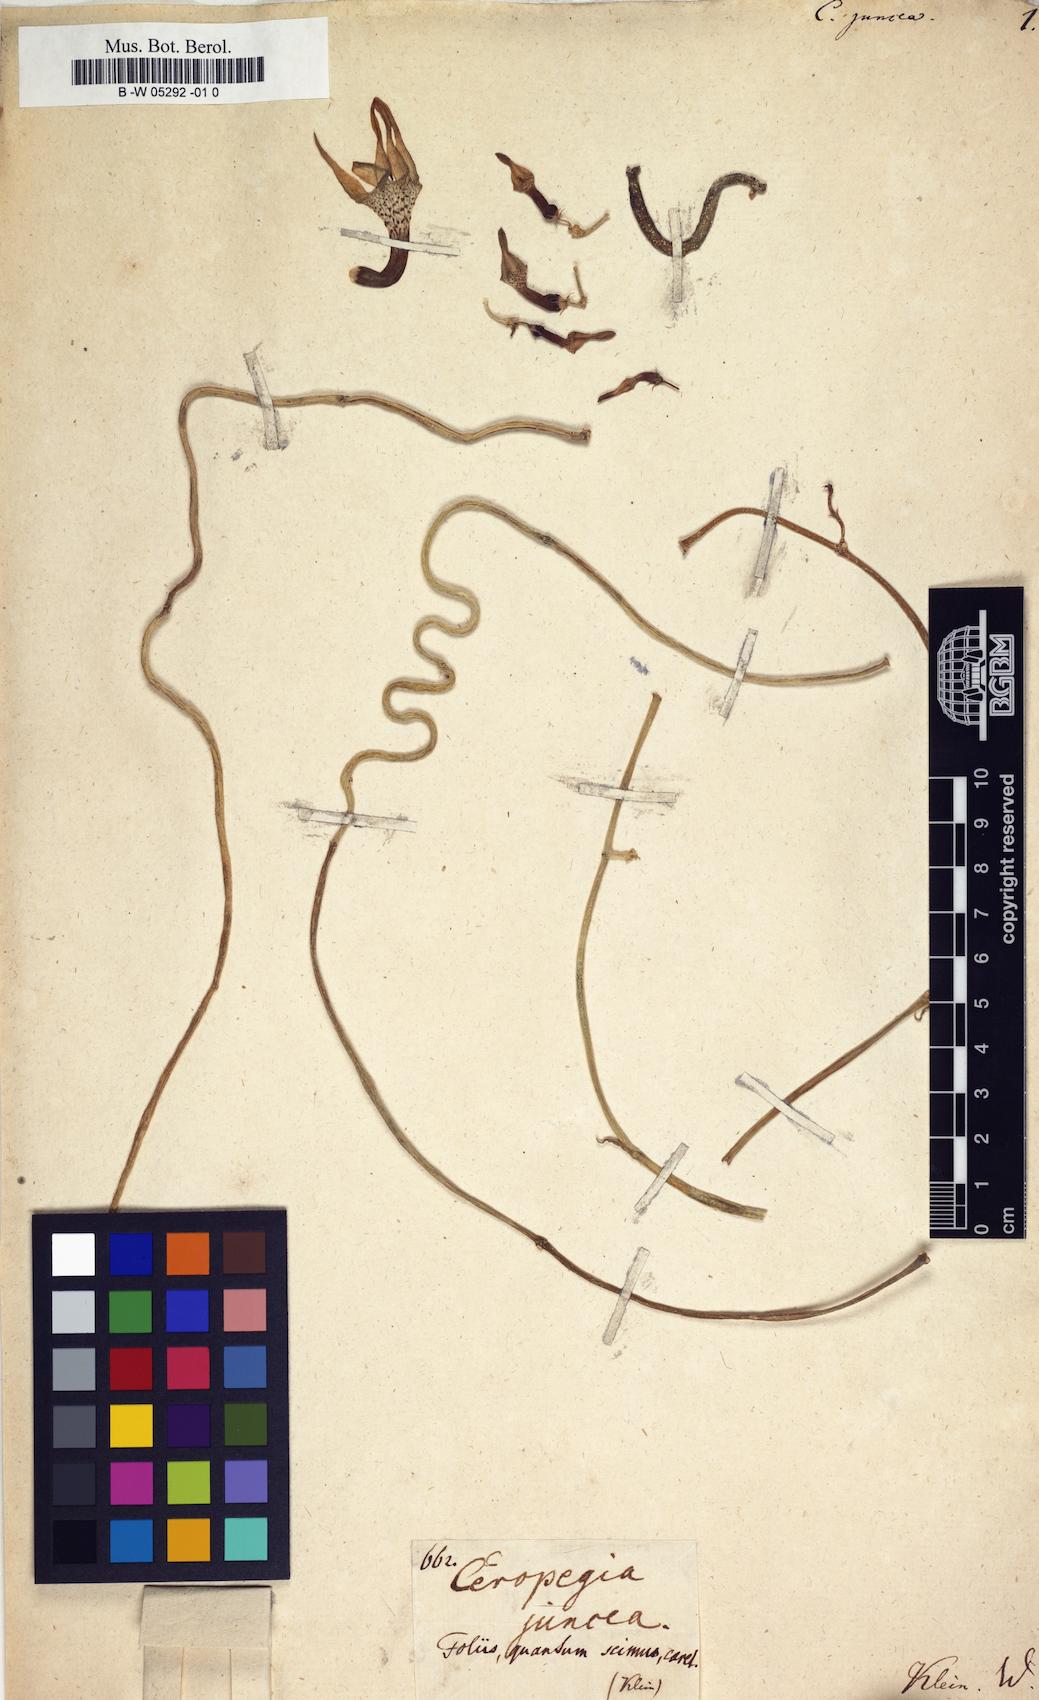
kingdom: Plantae
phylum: Tracheophyta
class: Magnoliopsida
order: Gentianales
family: Apocynaceae
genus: Ceropegia
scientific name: Ceropegia juncea
